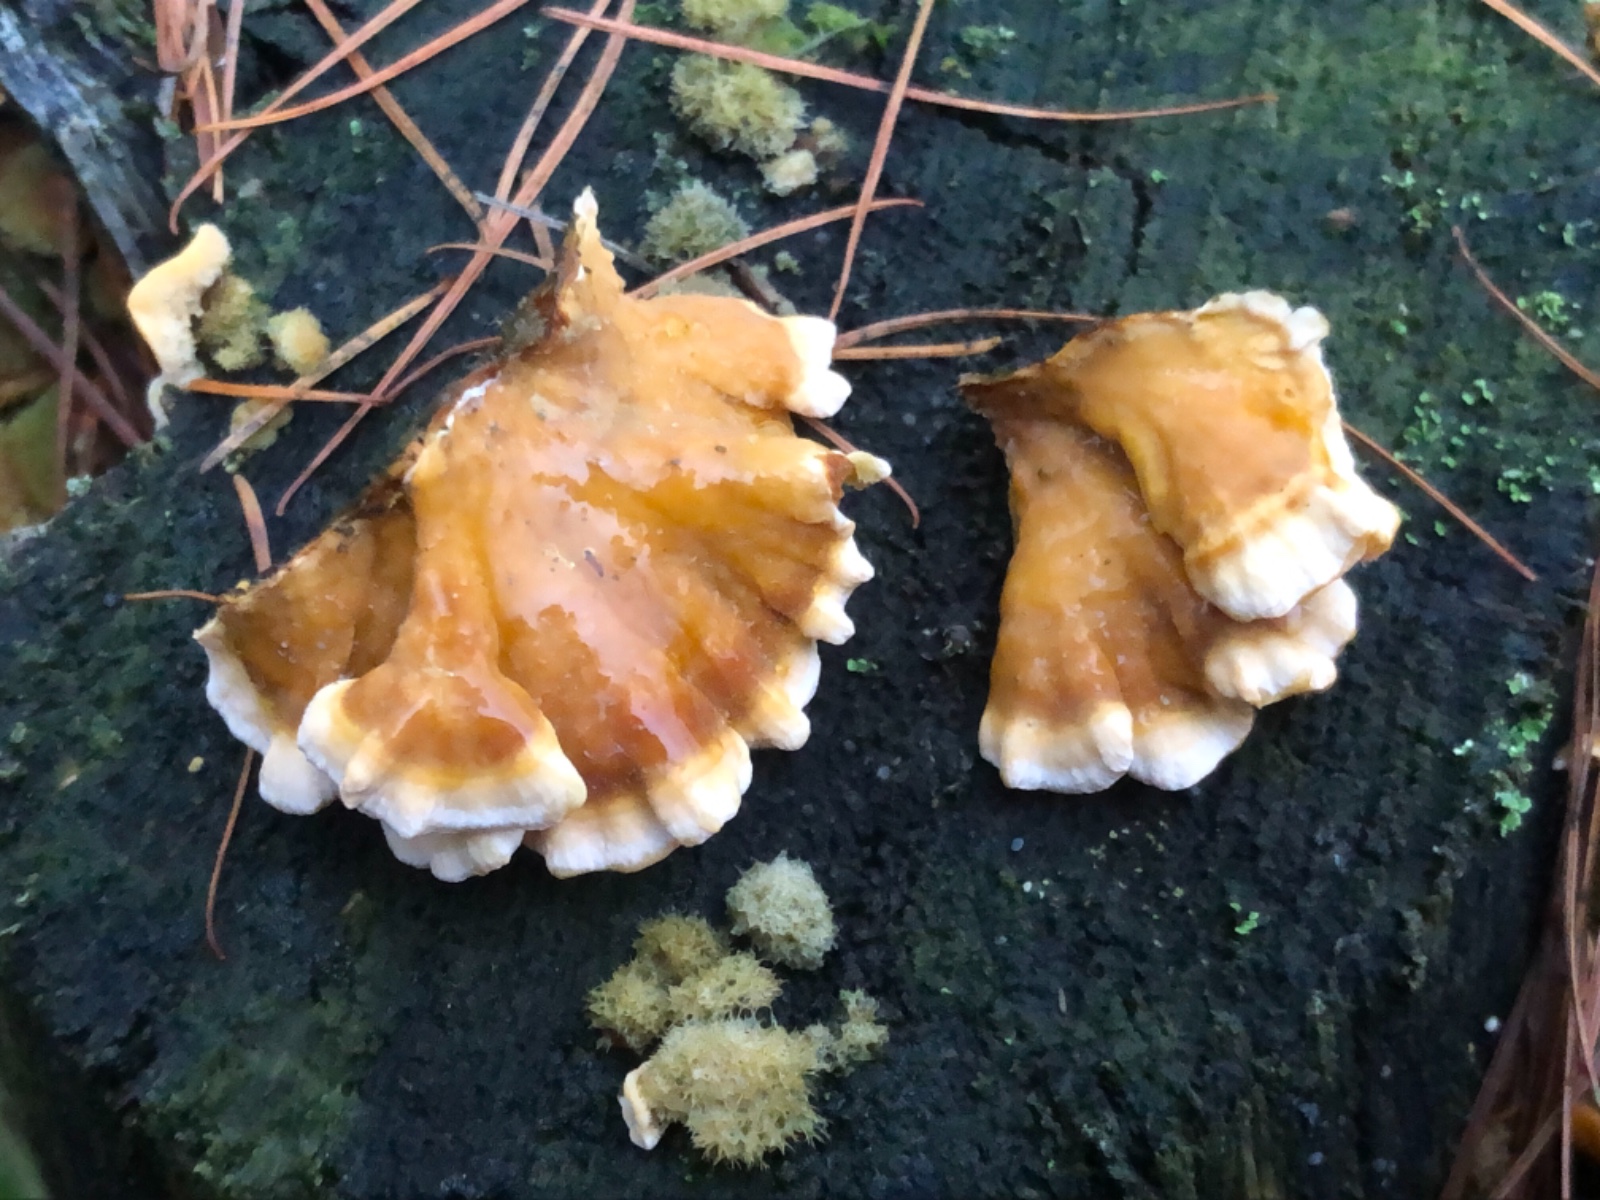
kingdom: Fungi
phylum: Basidiomycota
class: Agaricomycetes
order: Russulales
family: Stereaceae
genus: Stereum
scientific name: Stereum hirsutum
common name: håret lædersvamp
